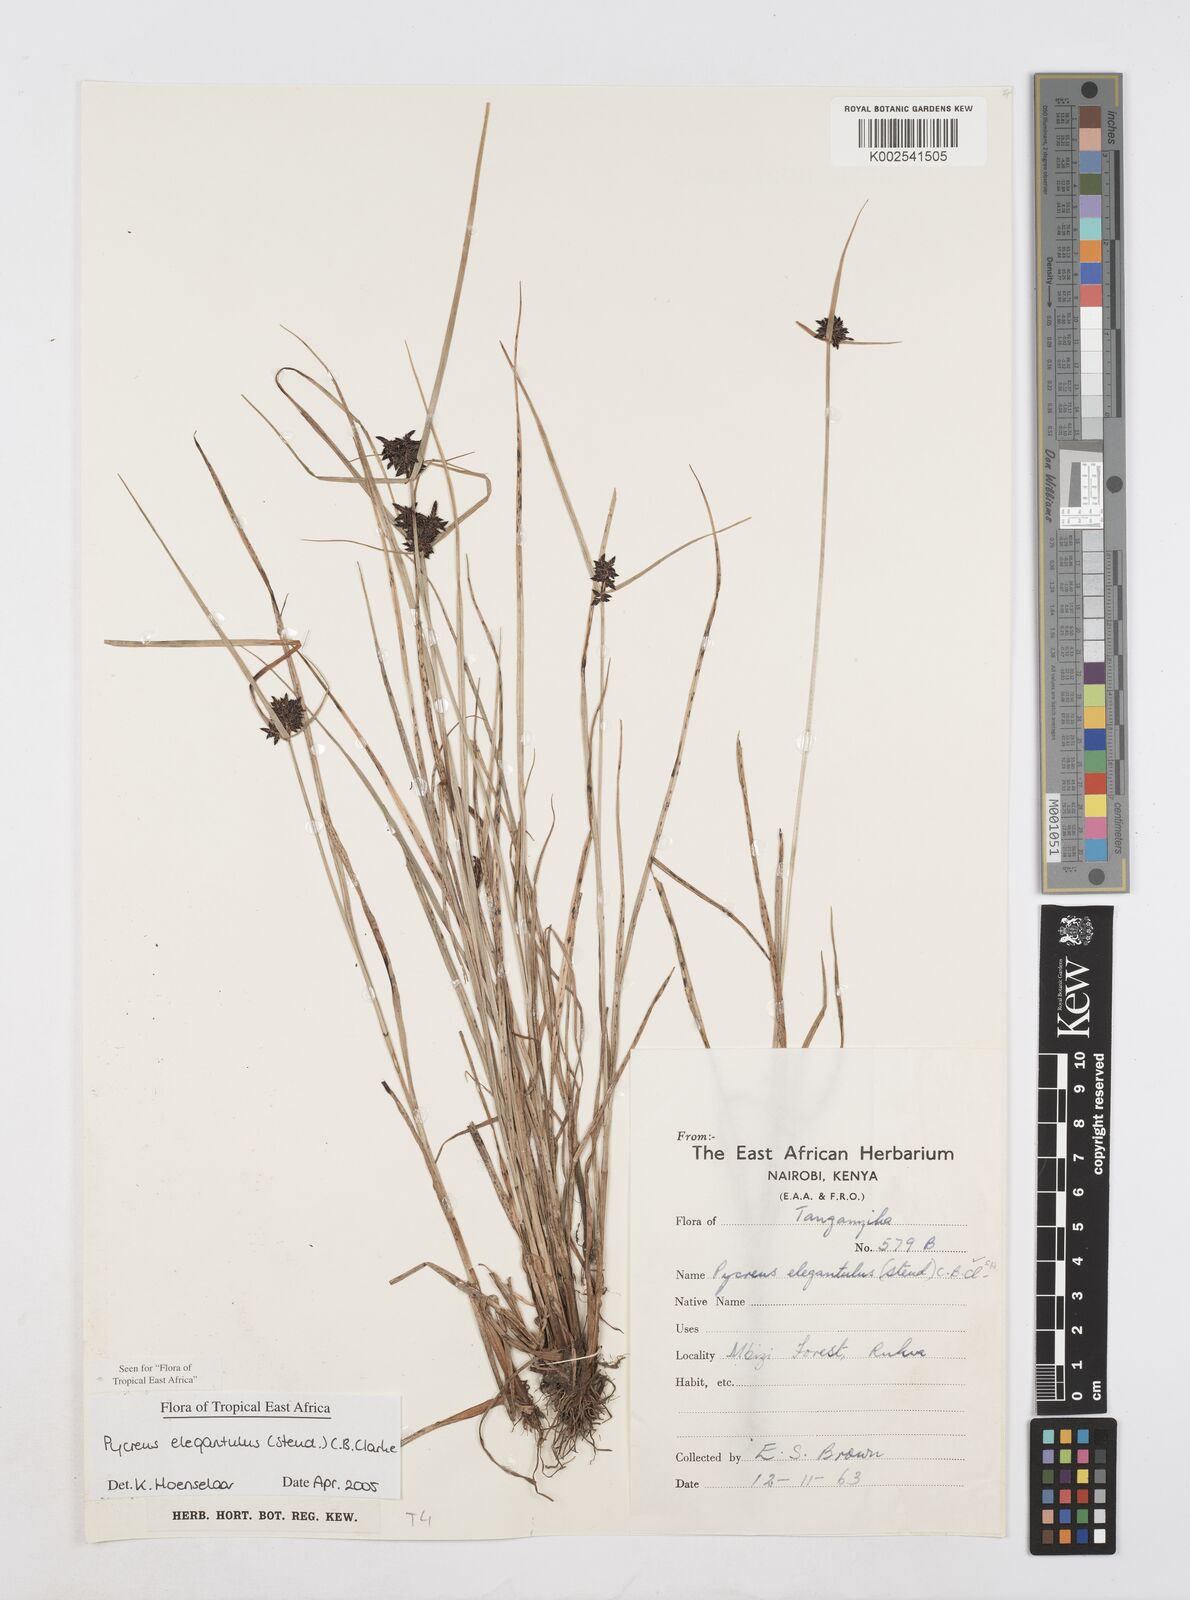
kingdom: Plantae
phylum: Tracheophyta
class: Liliopsida
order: Poales
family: Cyperaceae
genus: Cyperus
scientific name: Cyperus elegantulus
